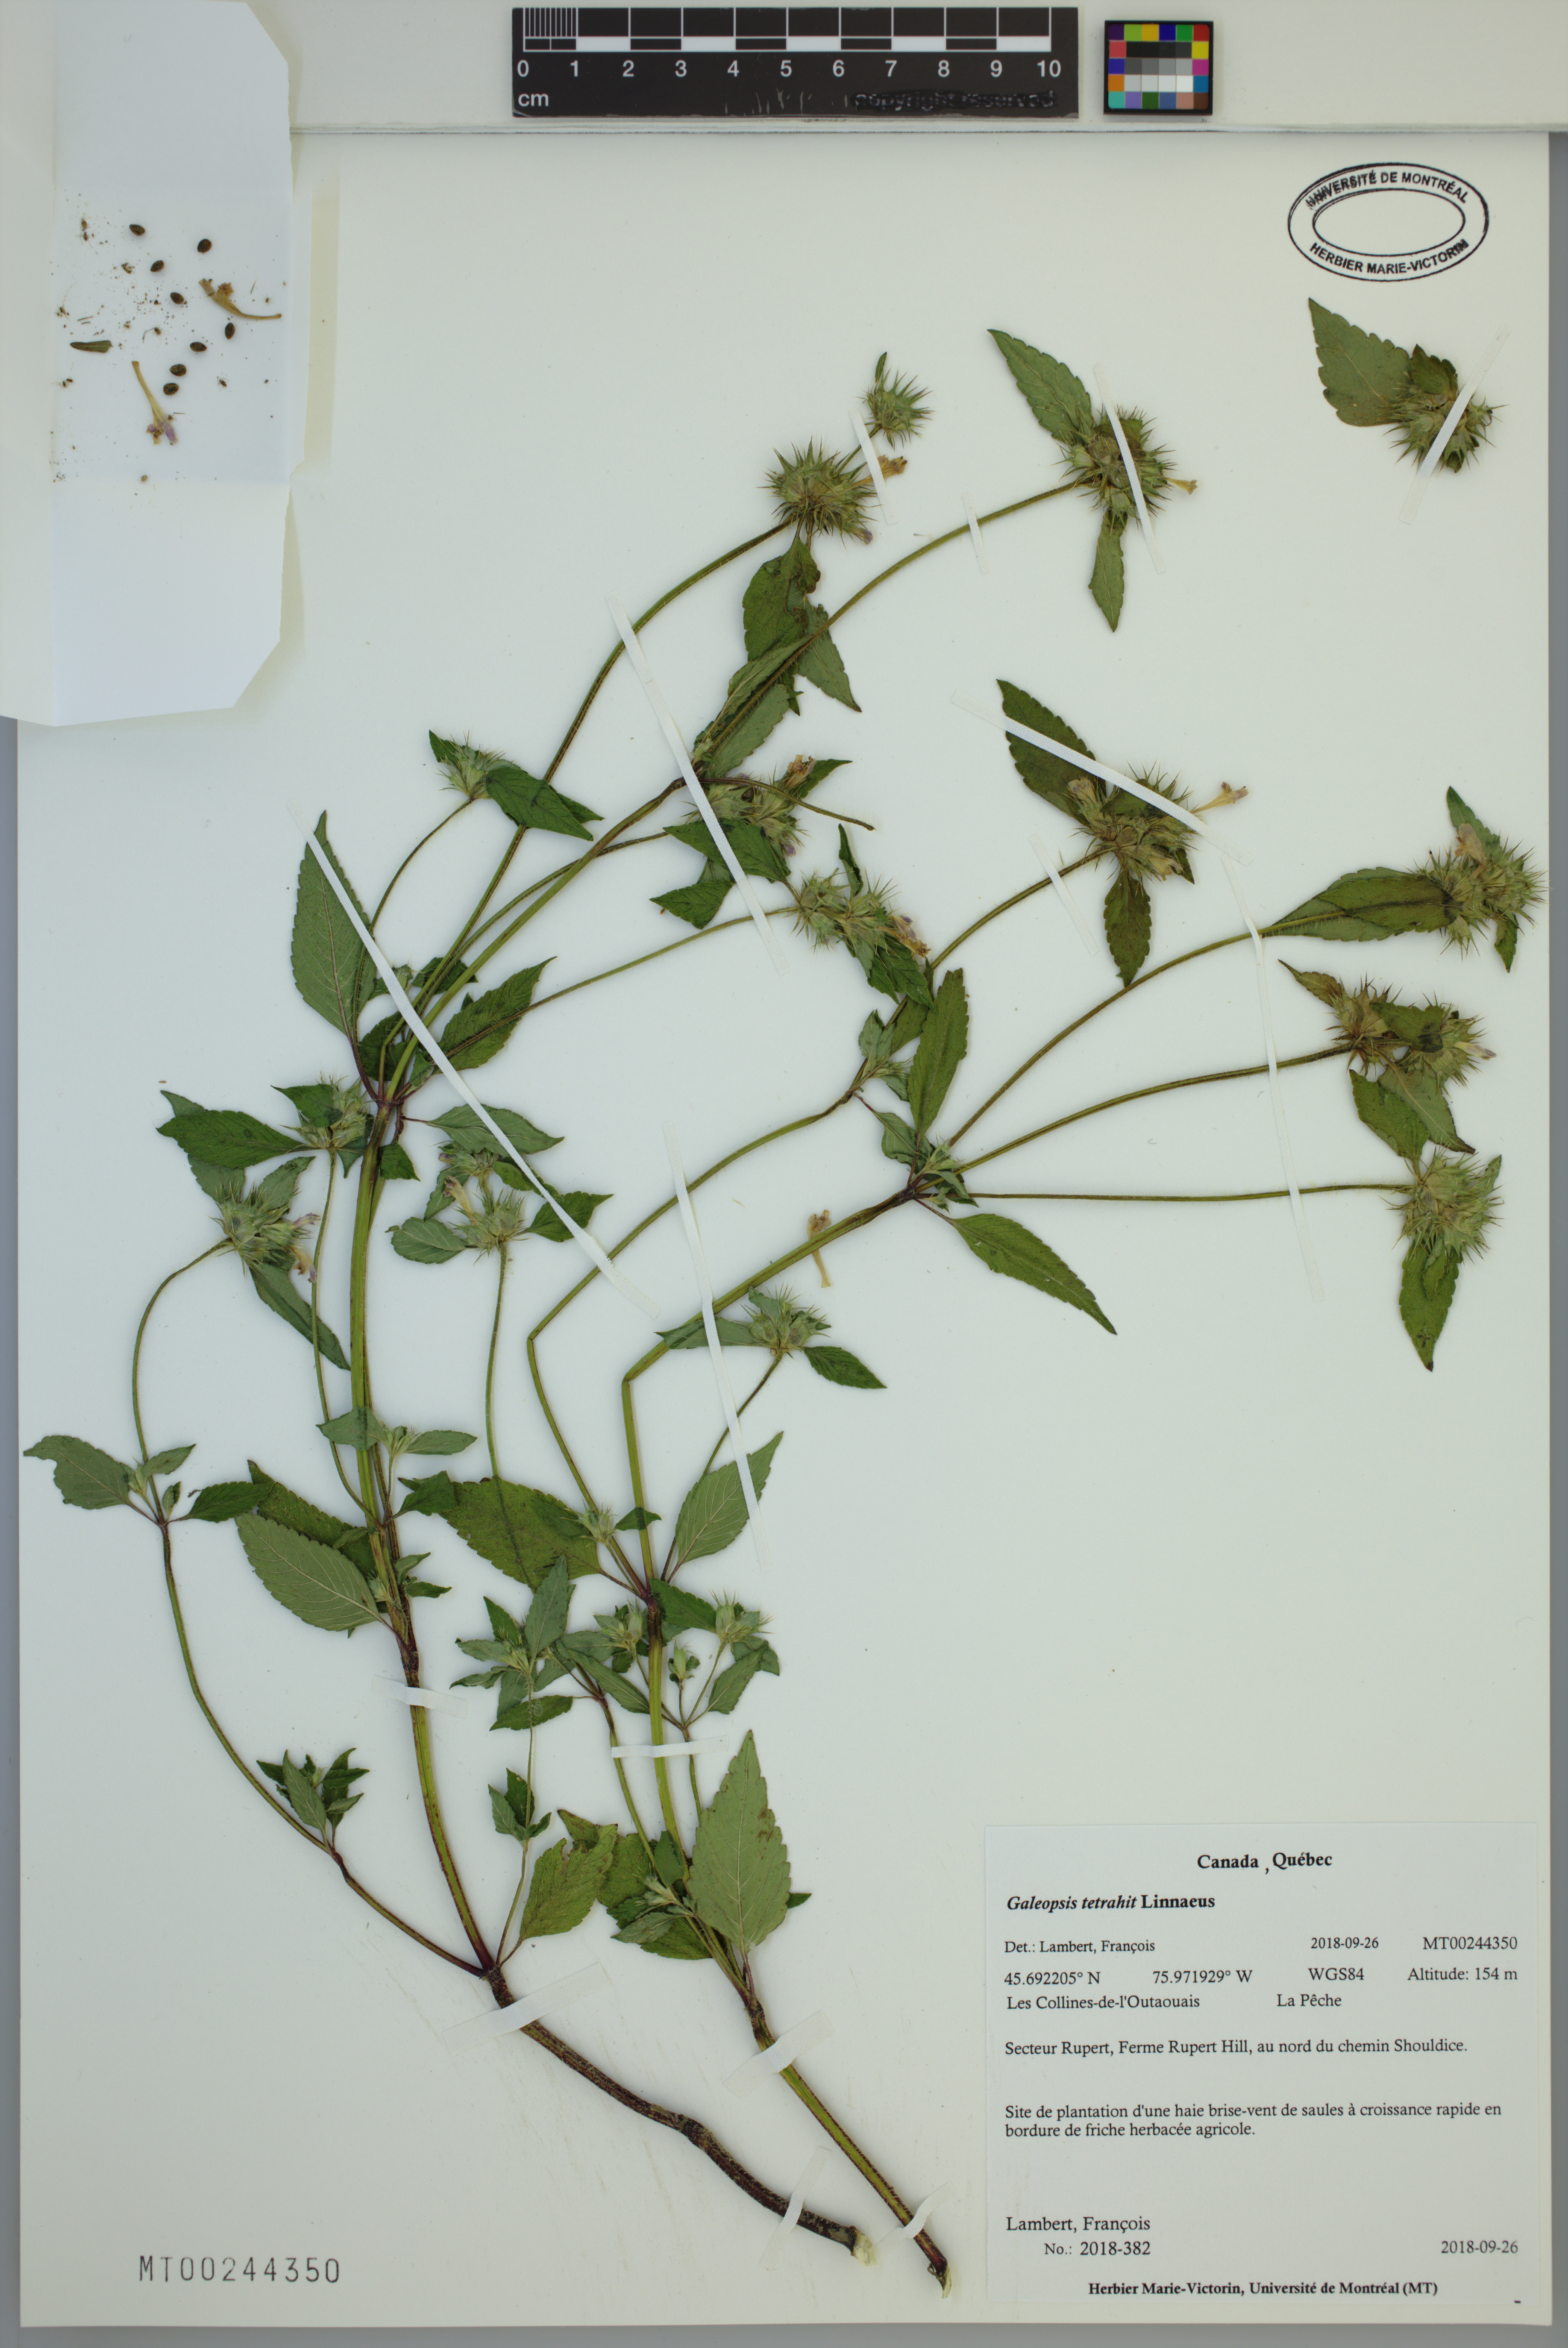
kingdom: Plantae
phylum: Tracheophyta
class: Magnoliopsida
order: Lamiales
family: Lamiaceae
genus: Galeopsis
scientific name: Galeopsis tetrahit
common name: Common hemp-nettle
